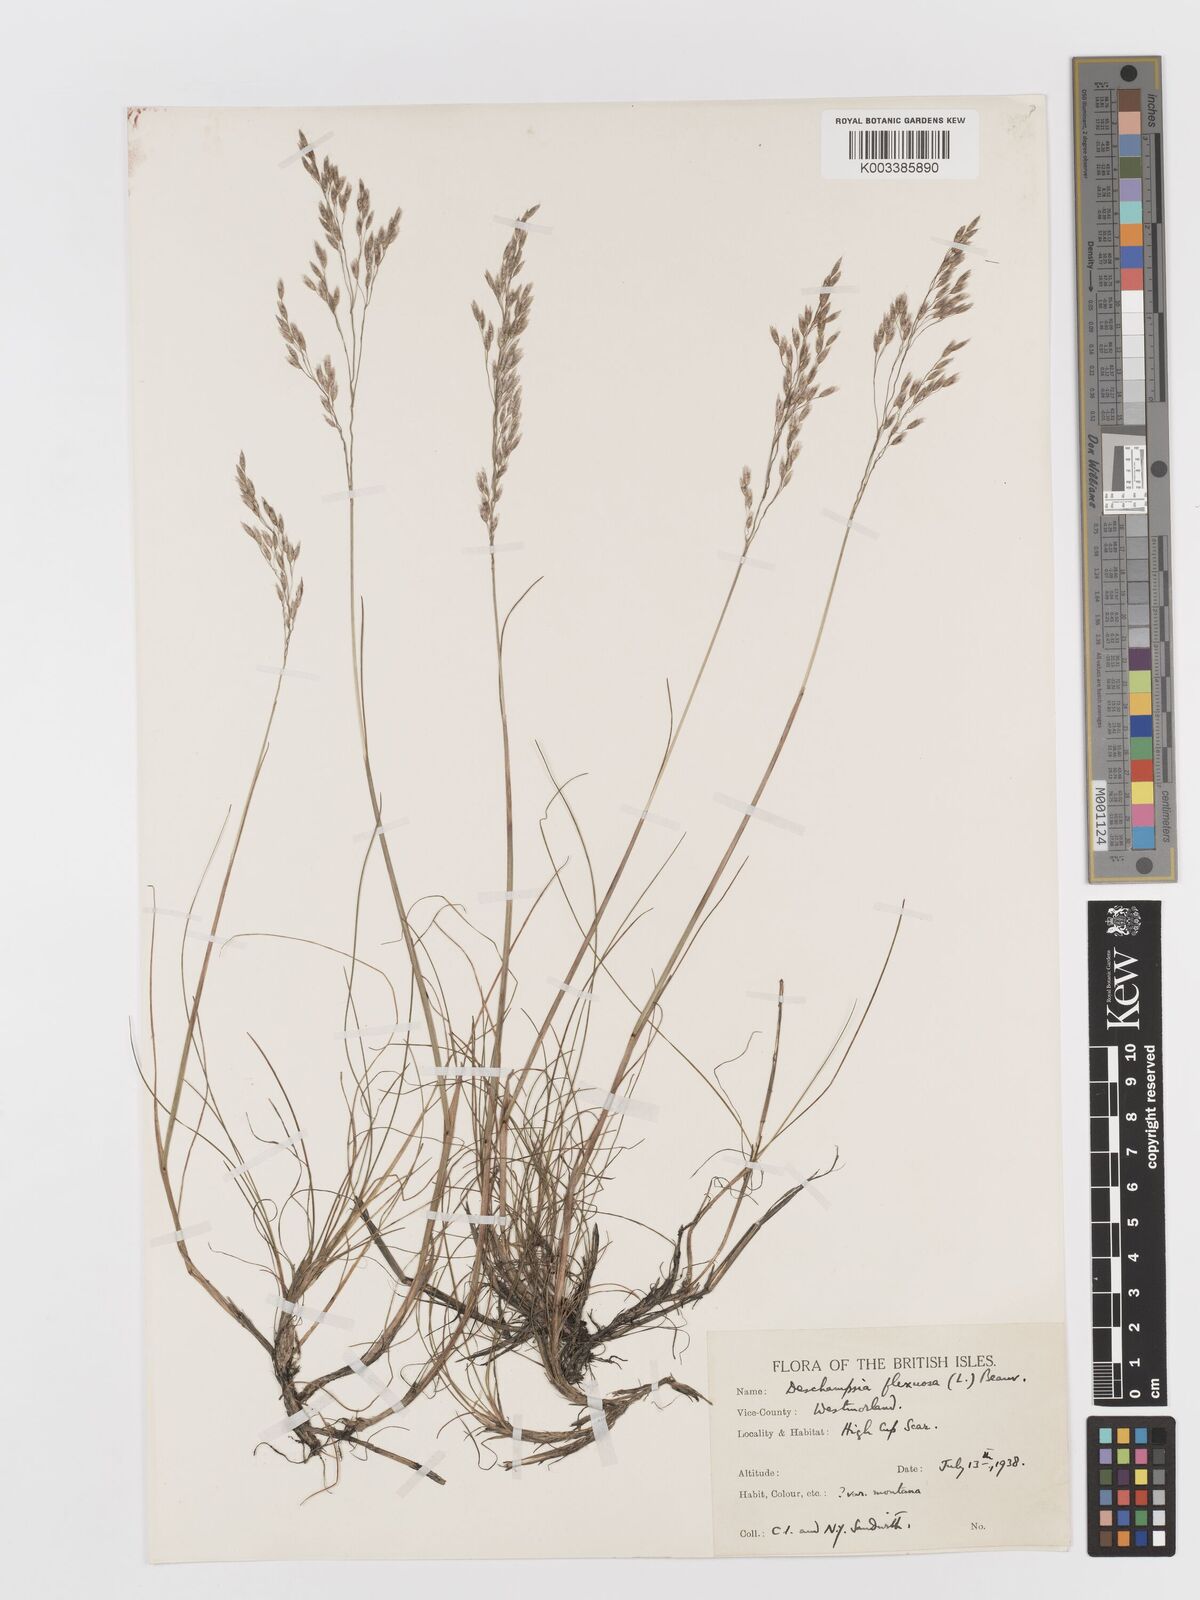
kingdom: Plantae
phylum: Tracheophyta
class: Liliopsida
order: Poales
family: Poaceae
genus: Avenella
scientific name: Avenella flexuosa
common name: Wavy hairgrass
